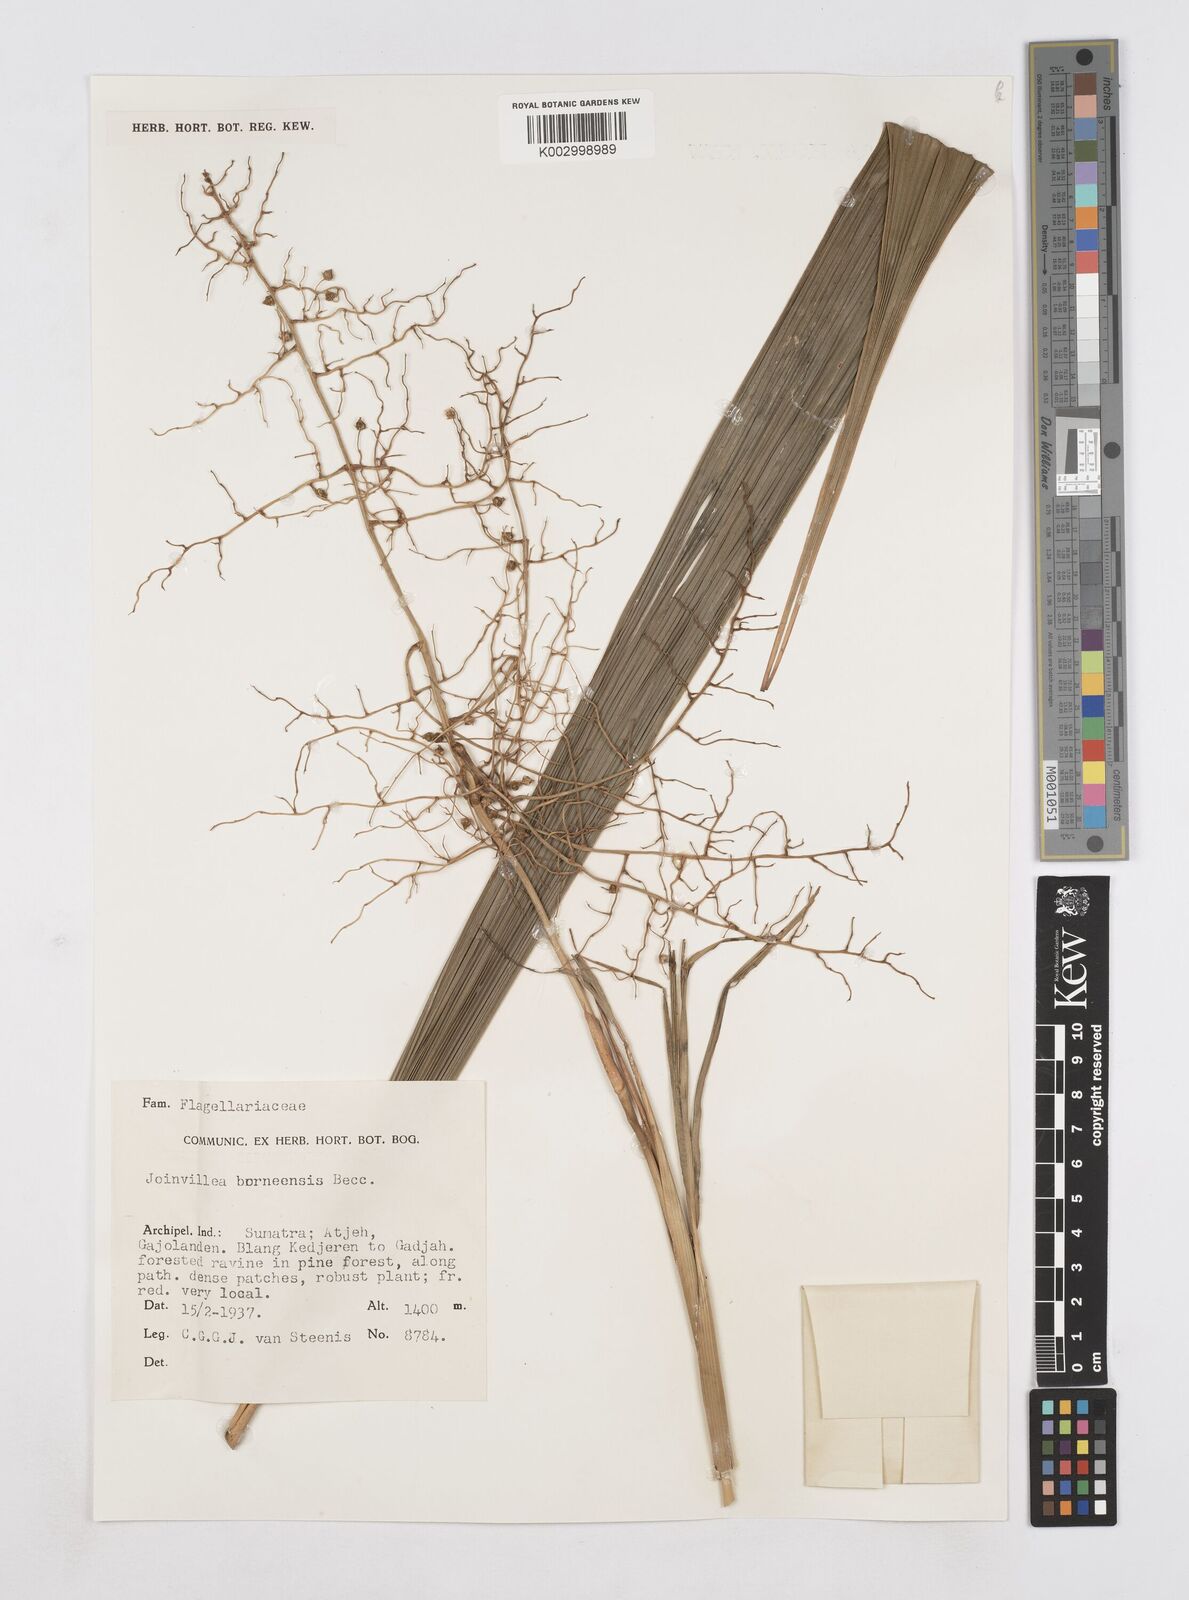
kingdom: Plantae
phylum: Tracheophyta
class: Liliopsida
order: Poales
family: Joinvilleaceae
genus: Joinvillea
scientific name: Joinvillea borneensis
